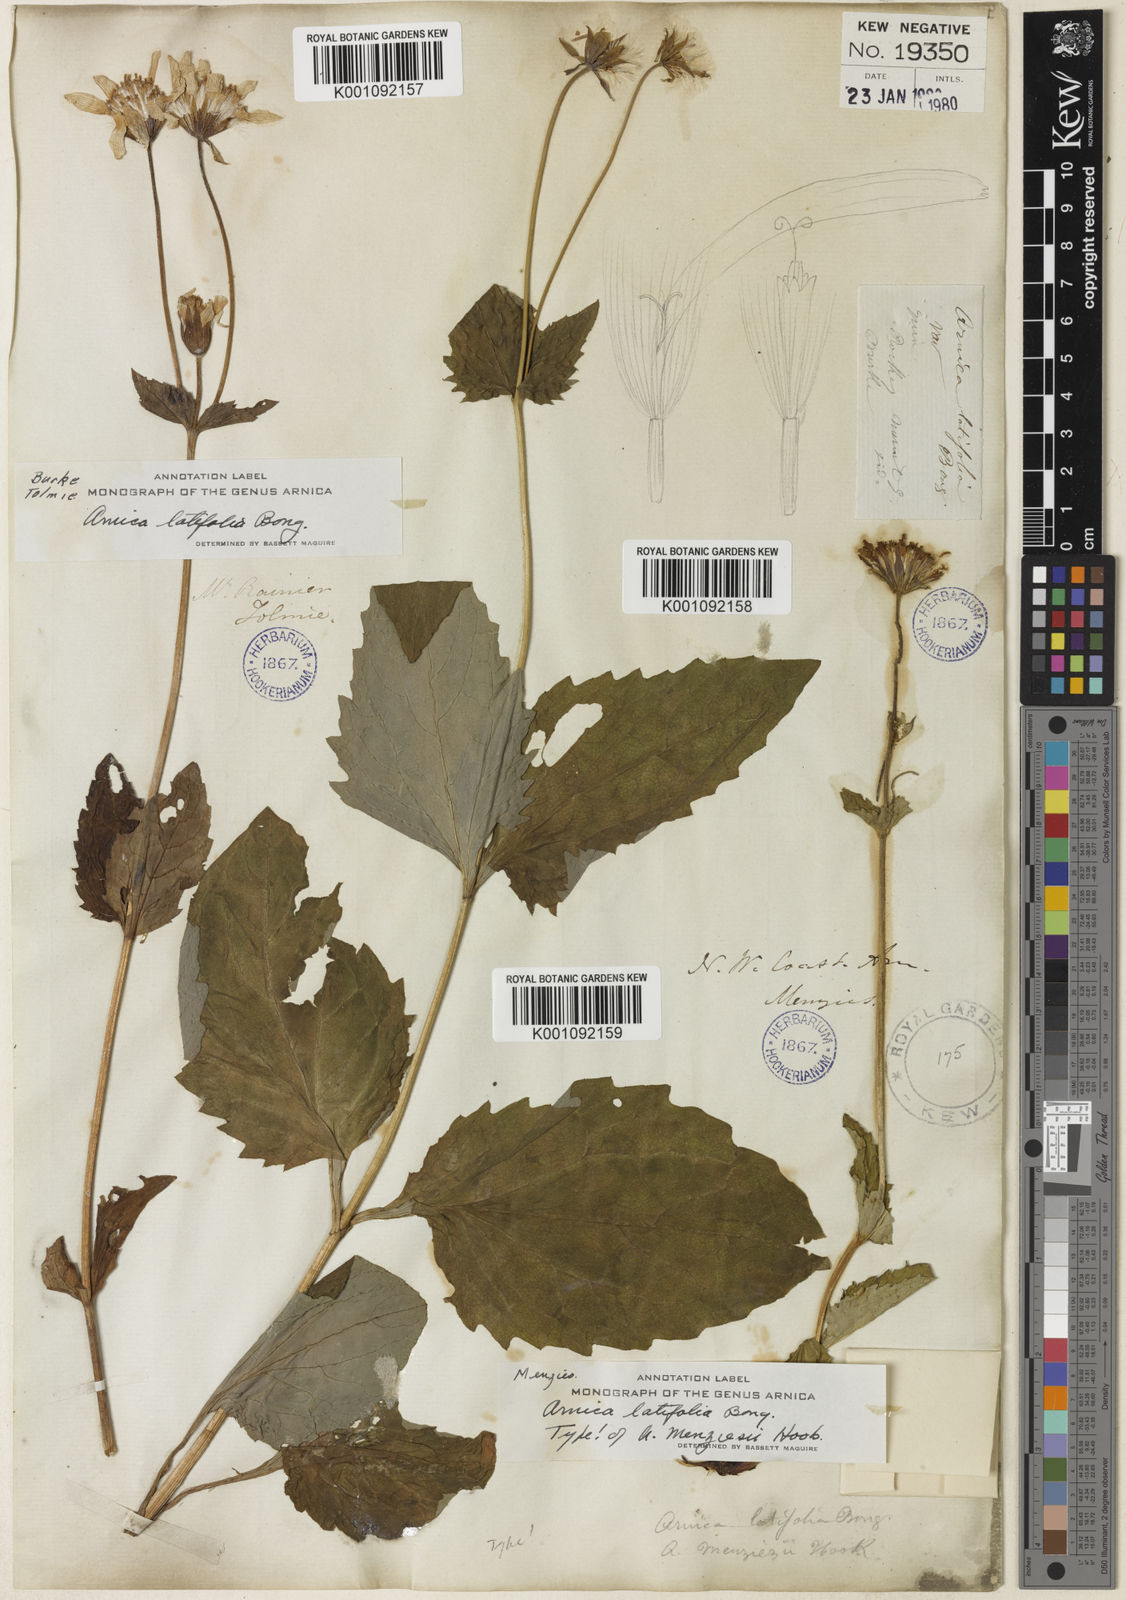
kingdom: Plantae
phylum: Tracheophyta
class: Magnoliopsida
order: Asterales
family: Asteraceae
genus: Arnica
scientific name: Arnica latifolia
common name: Arnica
